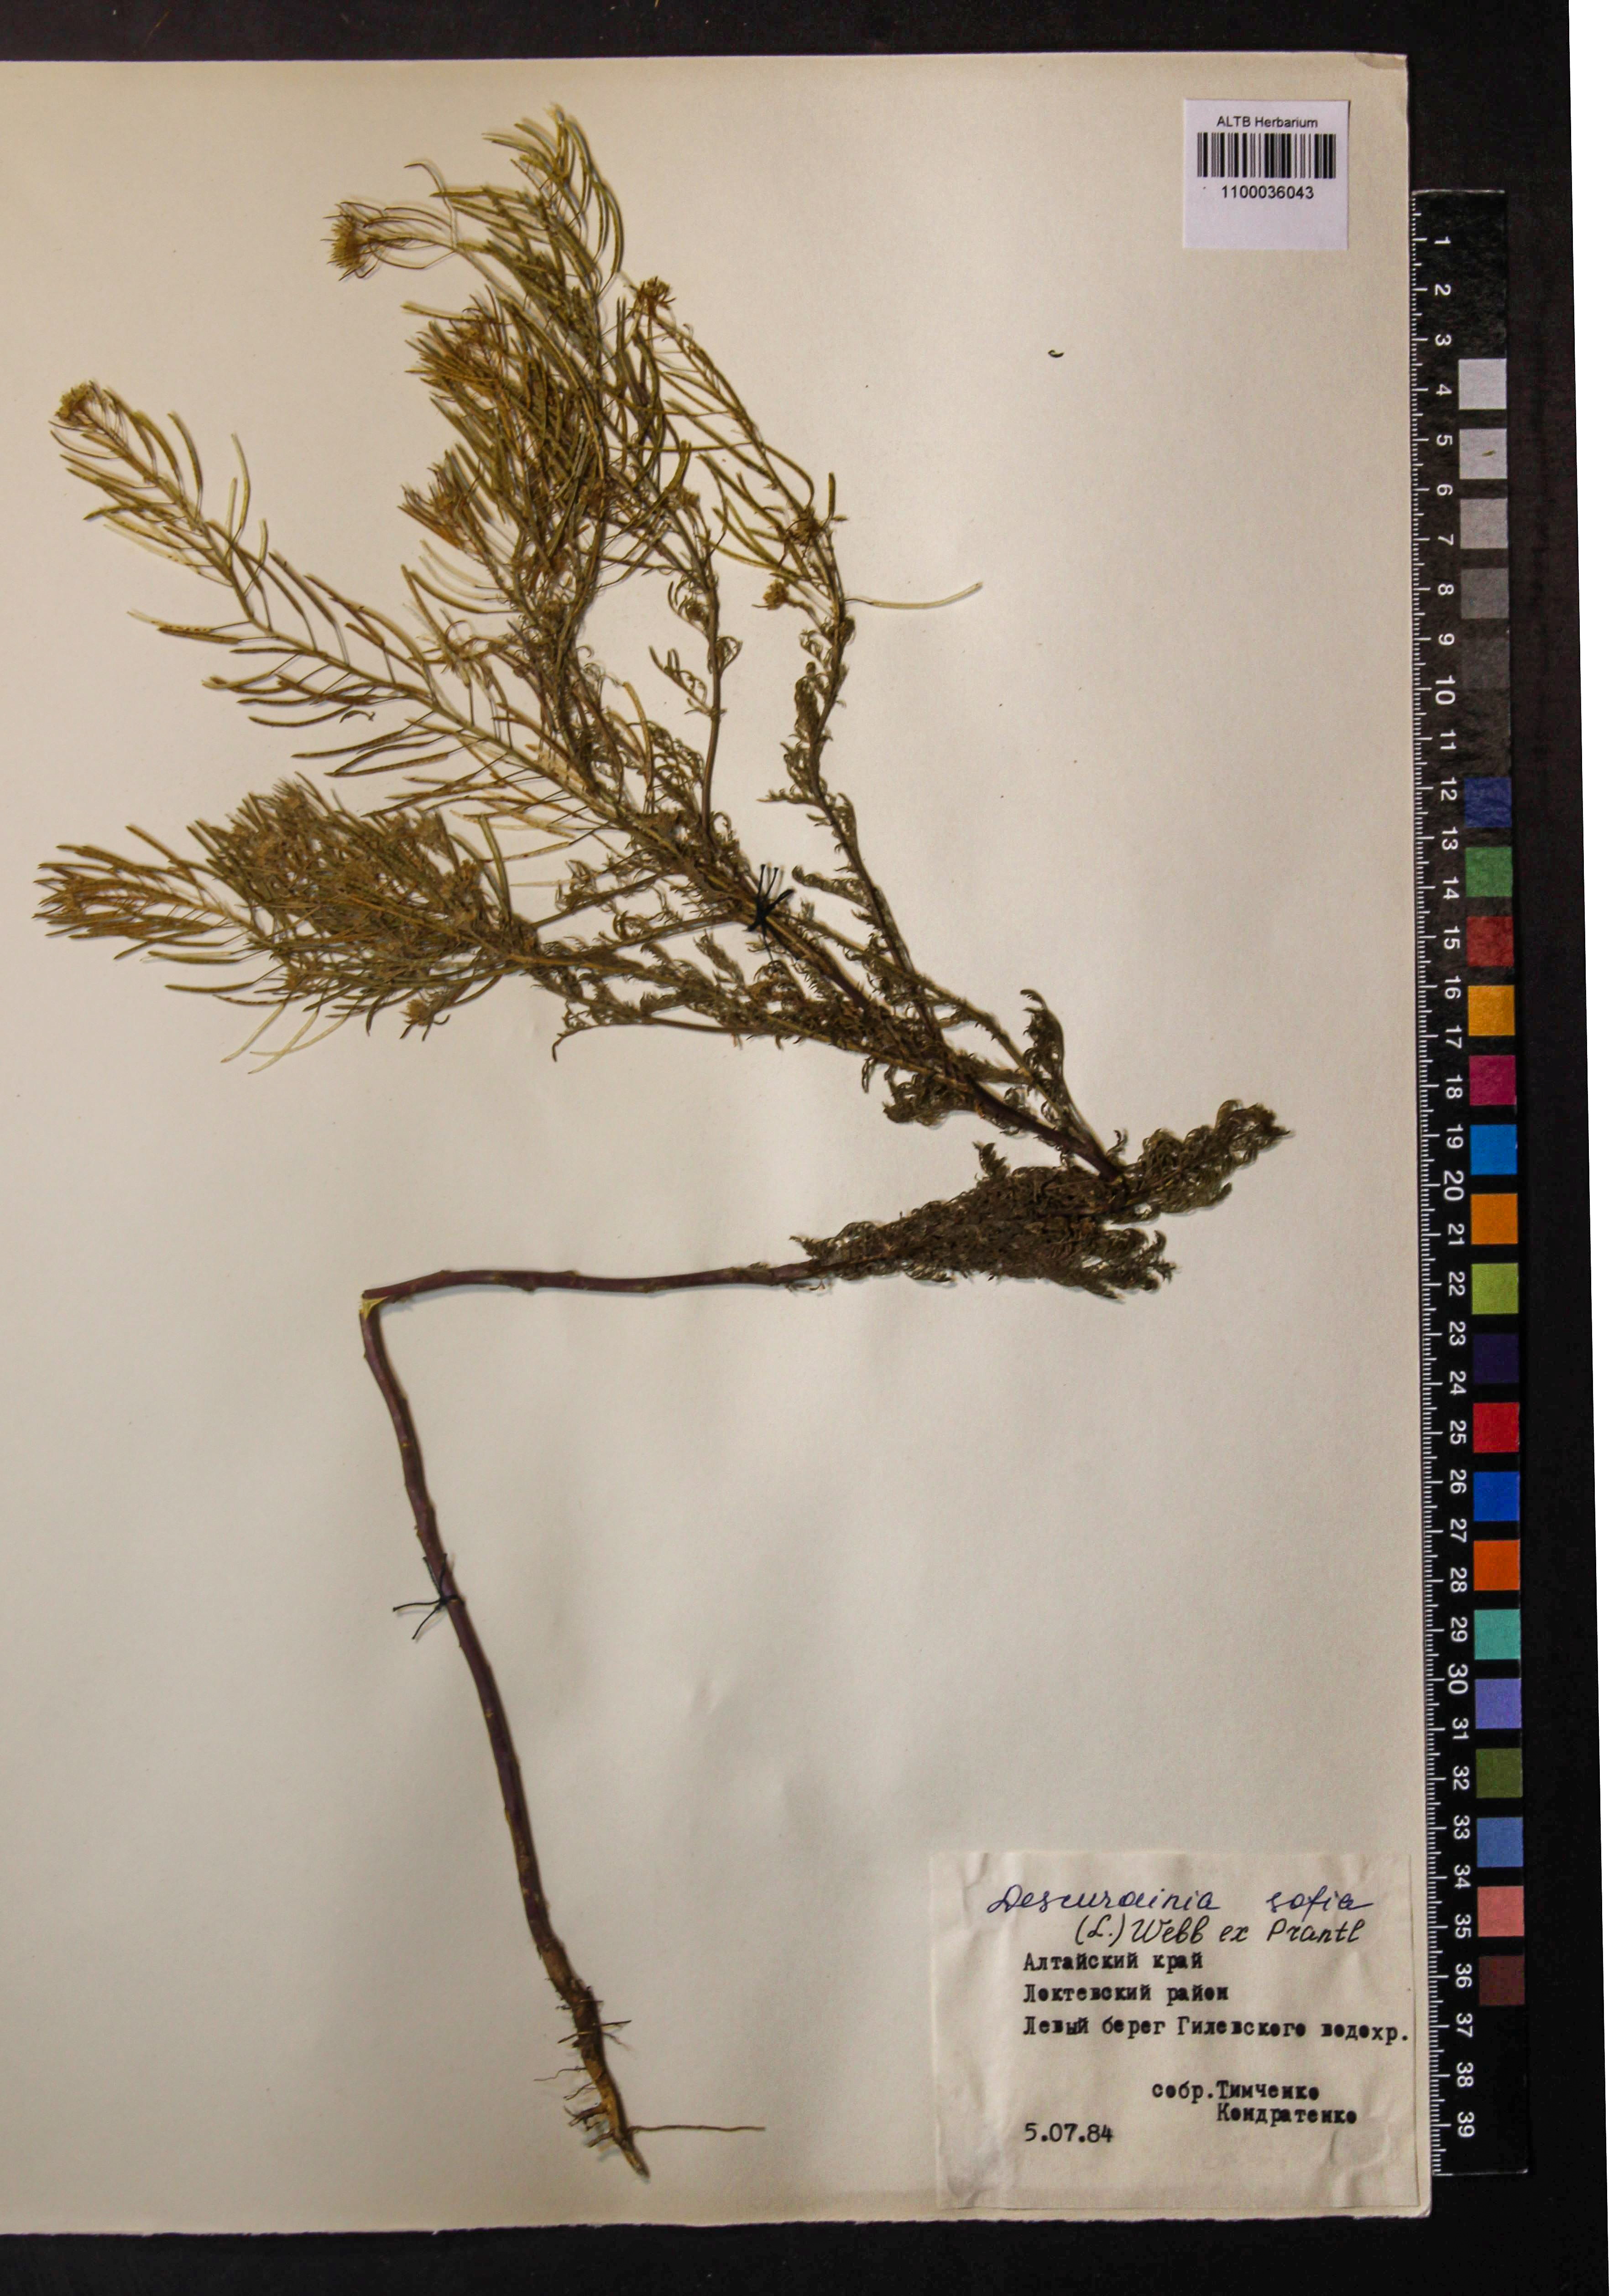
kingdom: Plantae
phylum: Tracheophyta
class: Magnoliopsida
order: Brassicales
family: Brassicaceae
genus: Descurainia
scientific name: Descurainia sophia
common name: Flixweed
